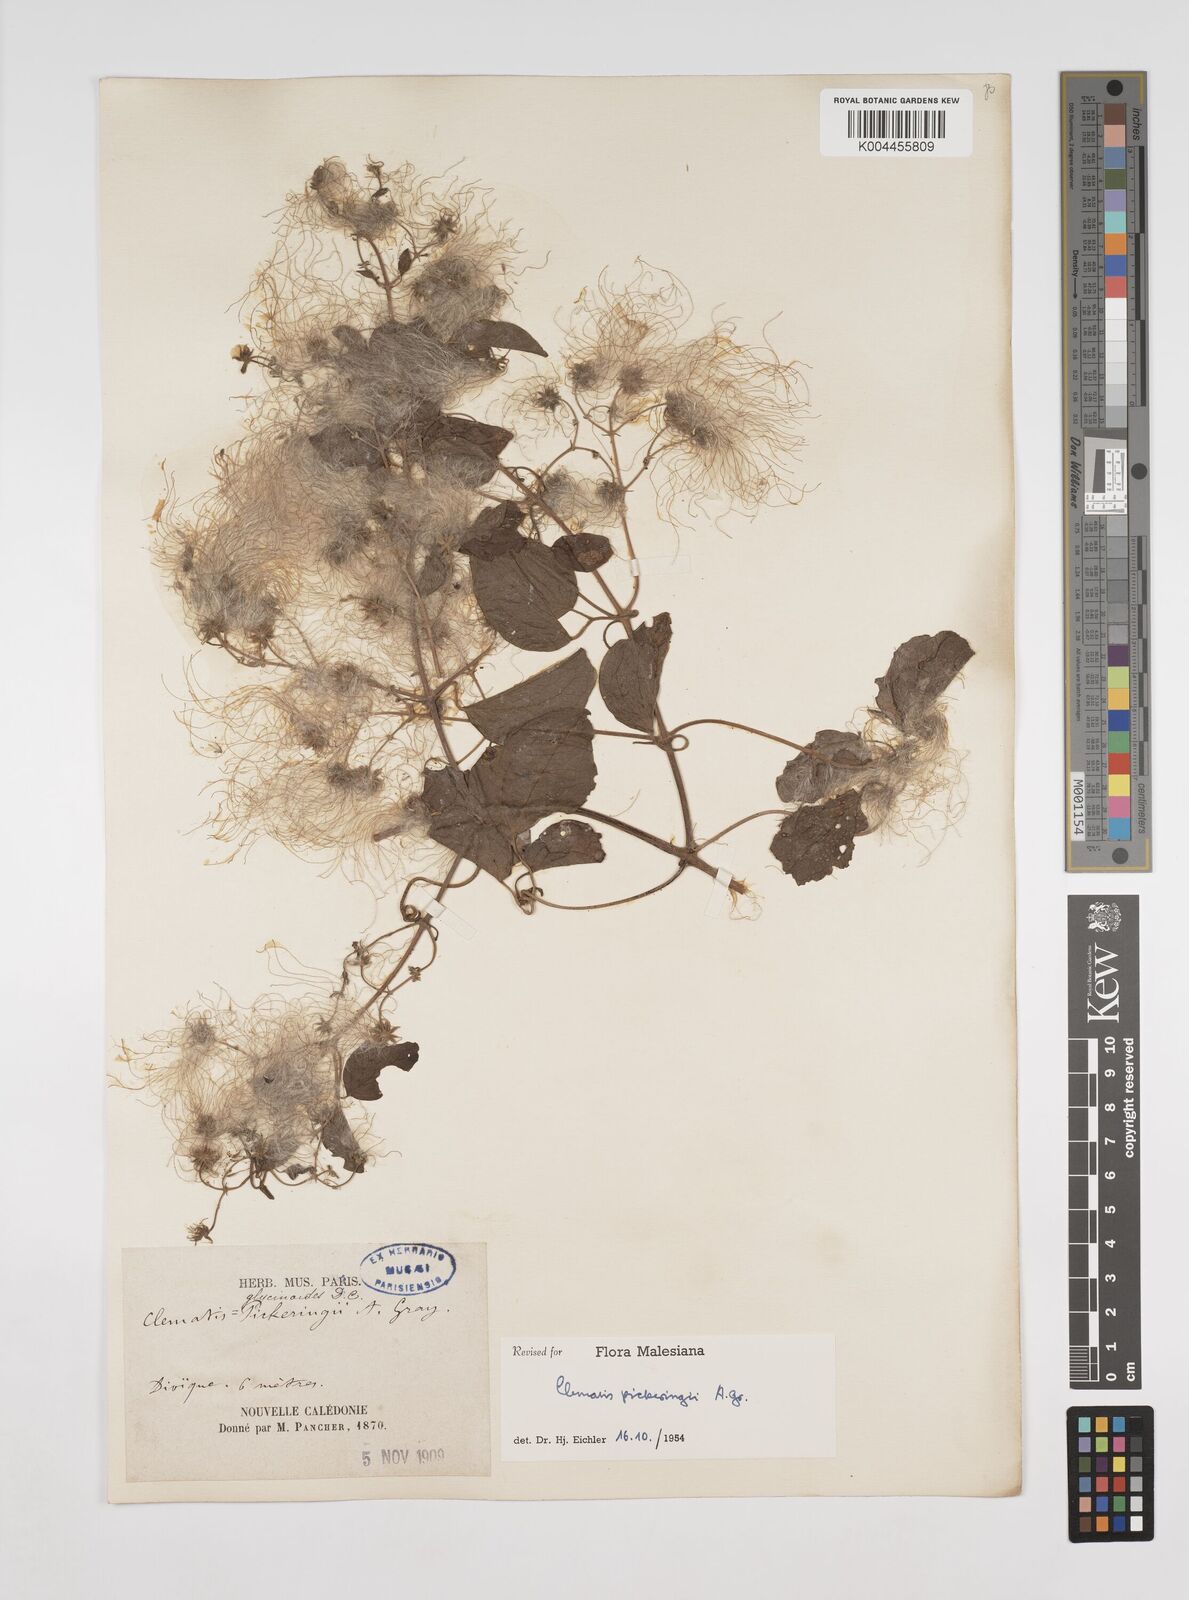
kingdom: Plantae
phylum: Tracheophyta
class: Magnoliopsida
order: Ranunculales
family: Ranunculaceae
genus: Clematis
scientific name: Clematis pickeringii
